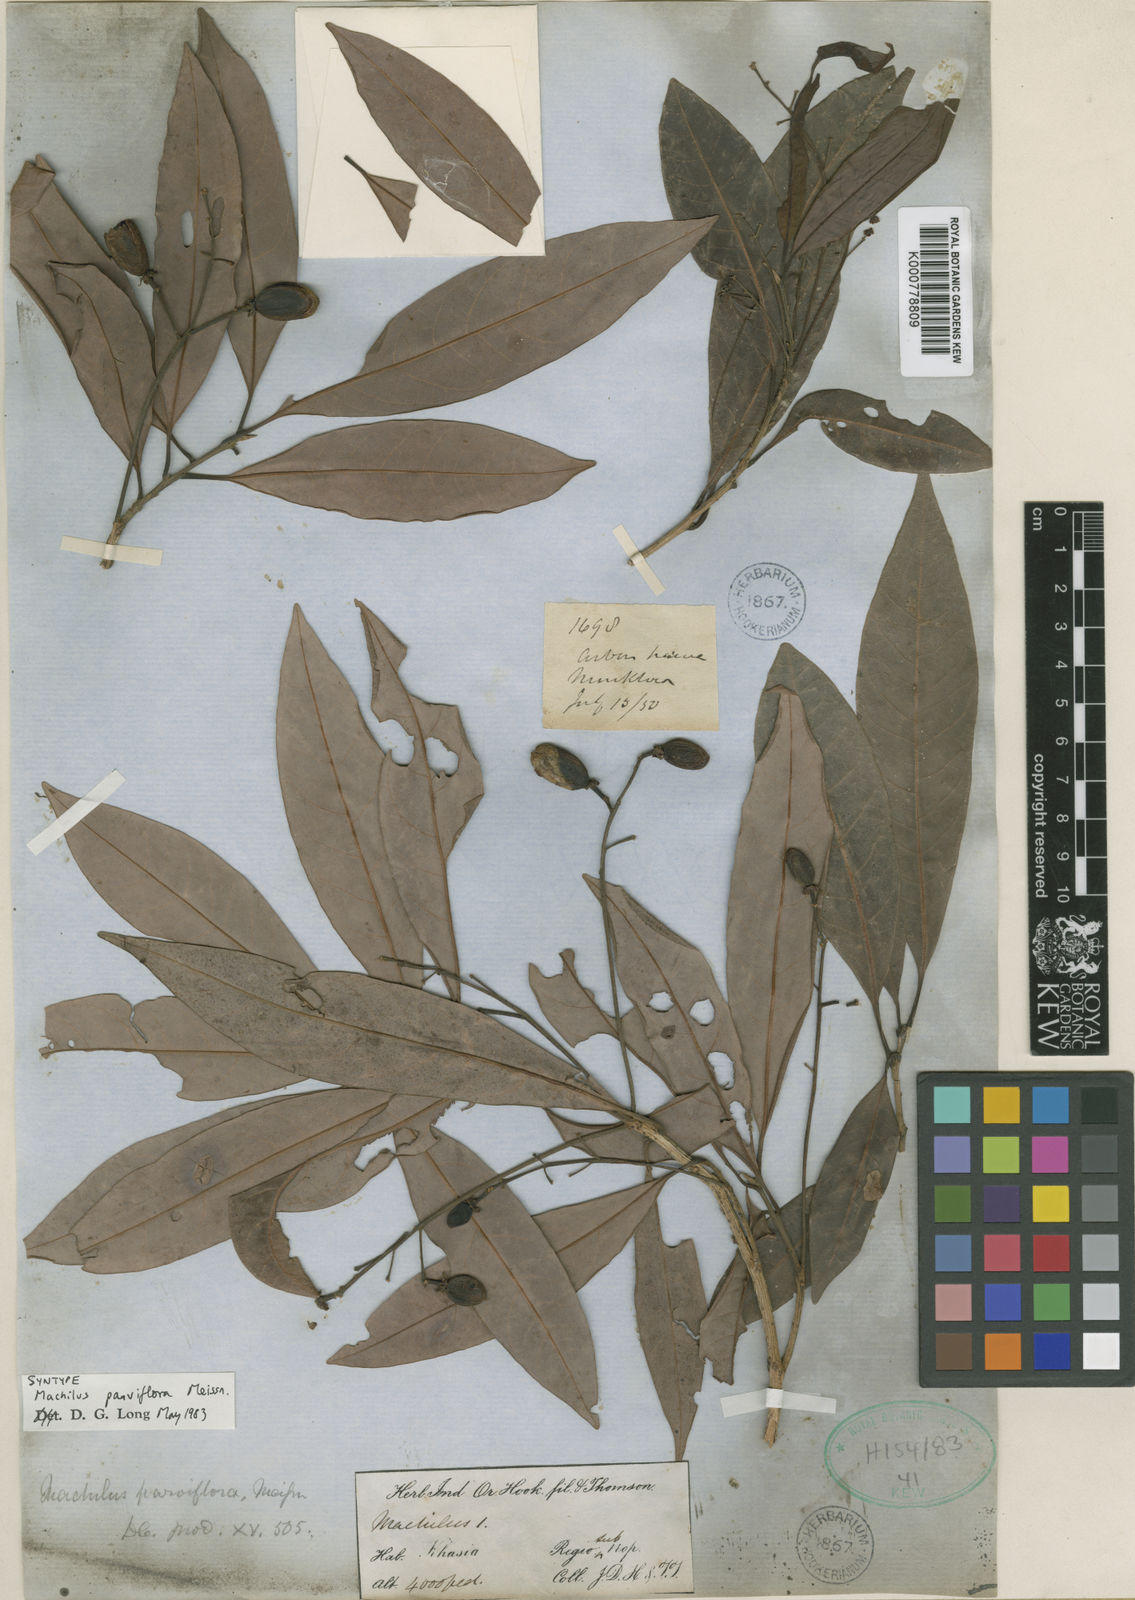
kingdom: Plantae
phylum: Tracheophyta
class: Magnoliopsida
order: Laurales
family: Lauraceae
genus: Machilus
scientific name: Machilus parviflora
